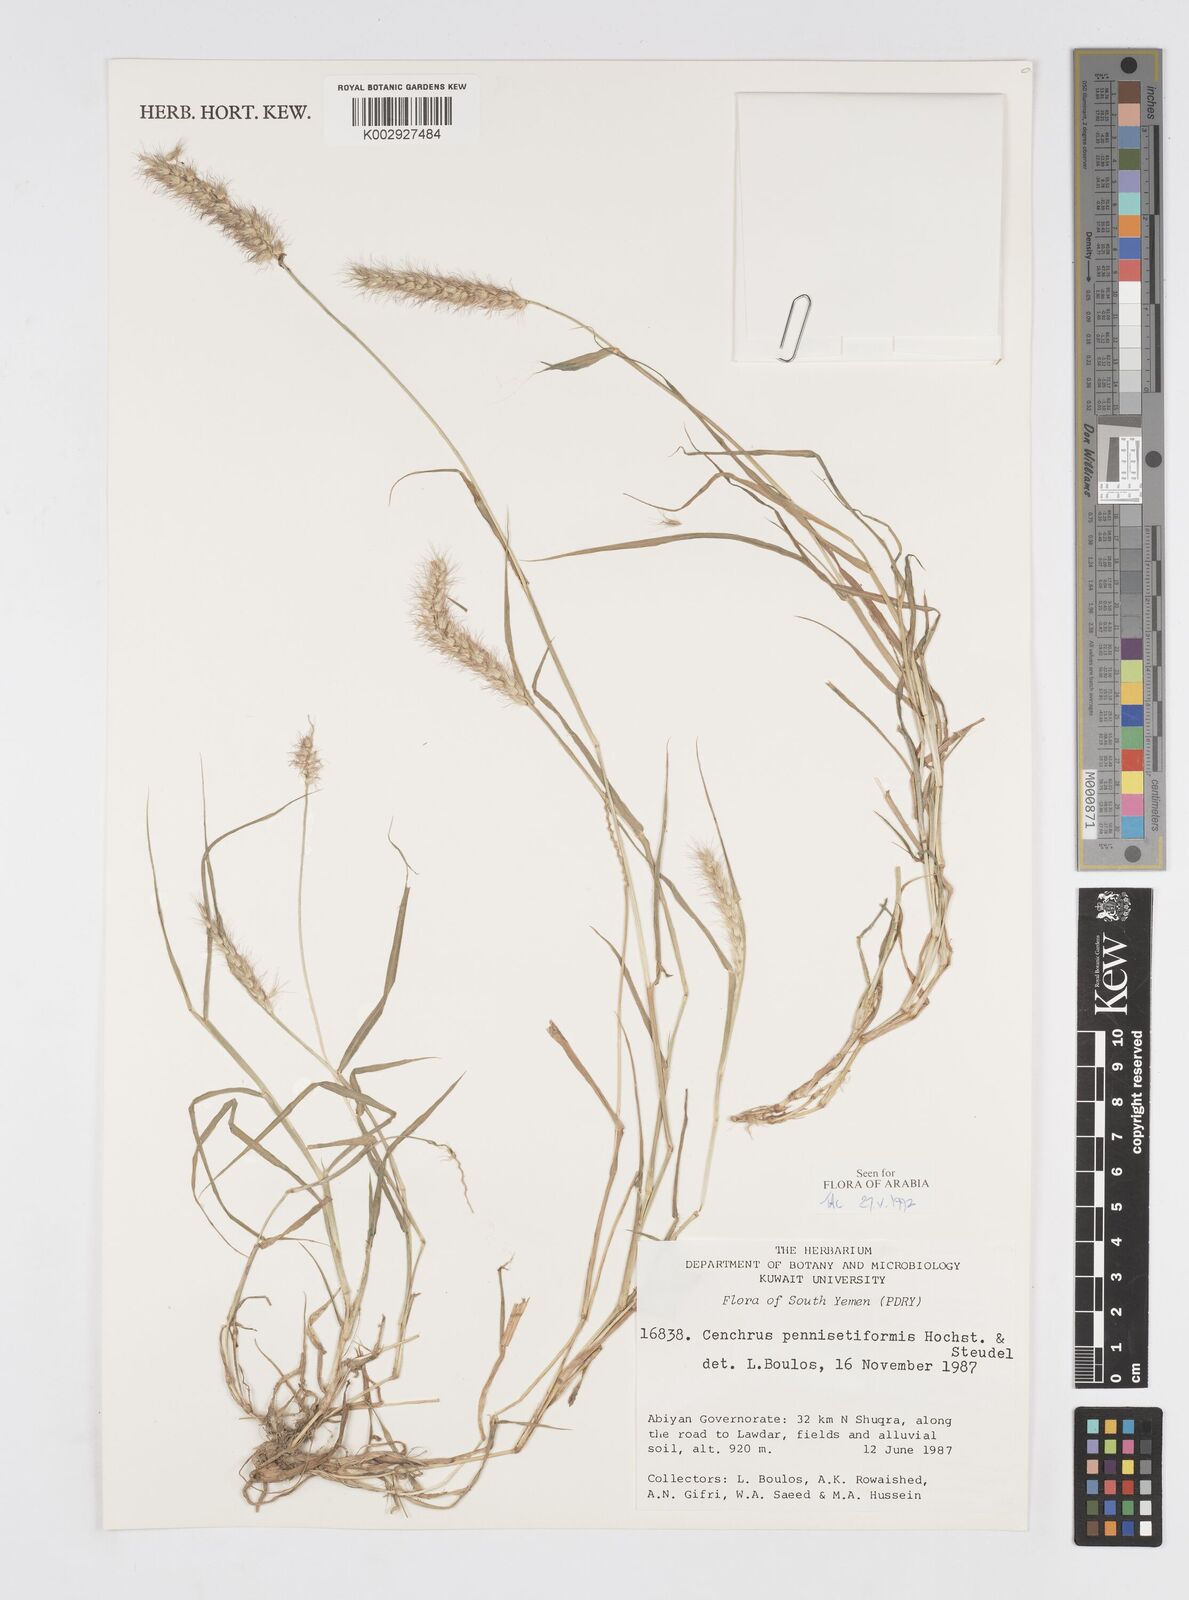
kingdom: Plantae
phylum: Tracheophyta
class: Liliopsida
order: Poales
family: Poaceae
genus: Cenchrus
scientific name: Cenchrus pennisetiformis
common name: Cloncurry
